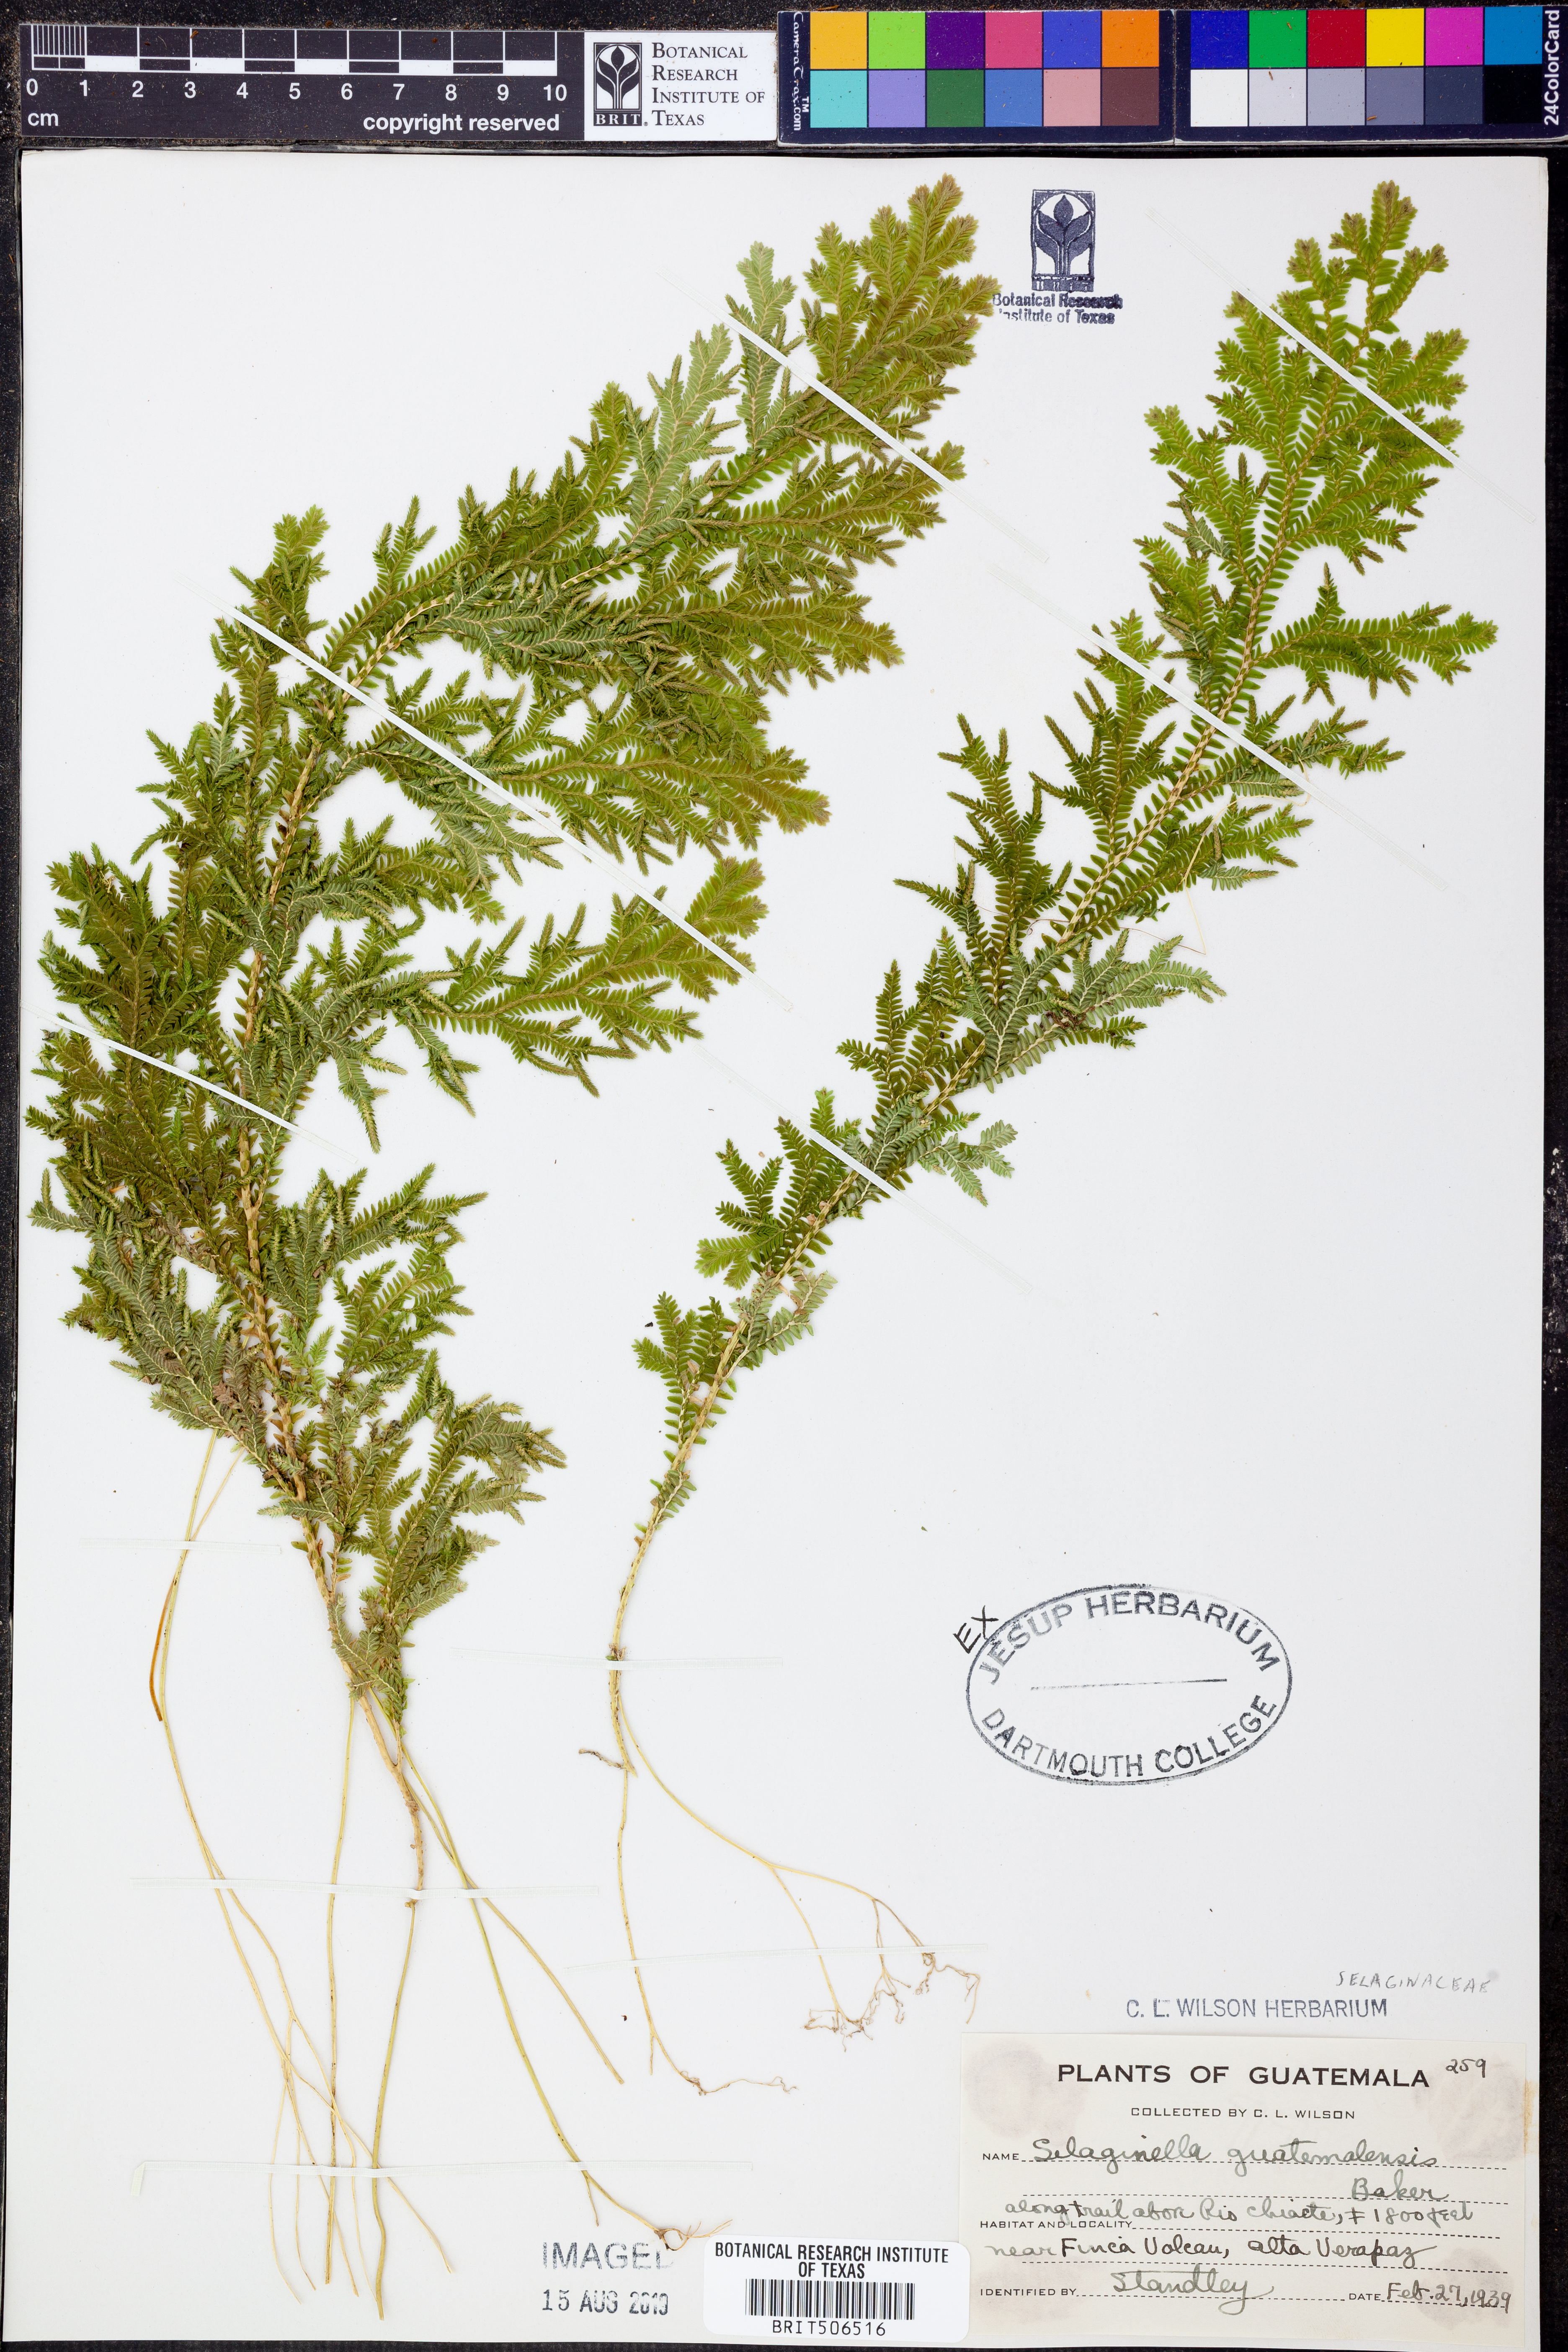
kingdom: Plantae
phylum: Tracheophyta
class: Lycopodiopsida
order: Selaginellales
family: Selaginellaceae
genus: Selaginella
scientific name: Selaginella guatemalensis
